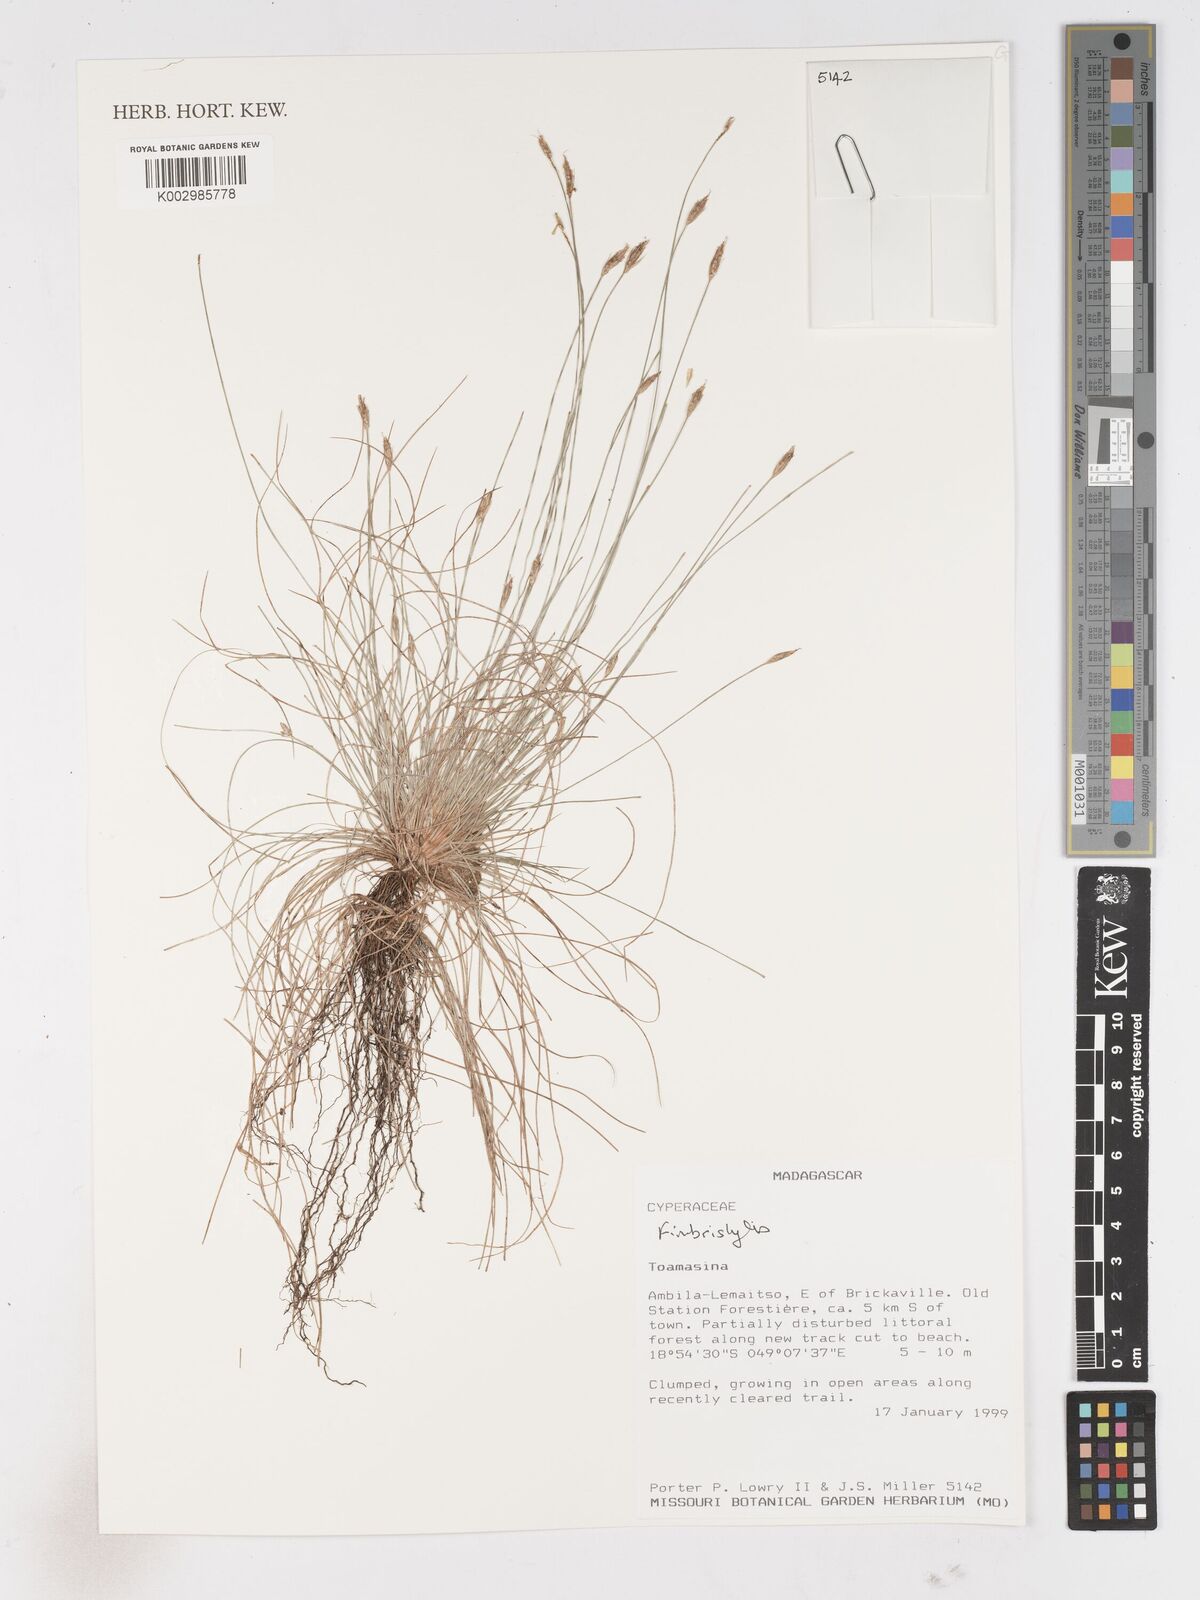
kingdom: Plantae
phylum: Tracheophyta
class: Liliopsida
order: Poales
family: Cyperaceae
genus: Fimbristylis
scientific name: Fimbristylis
